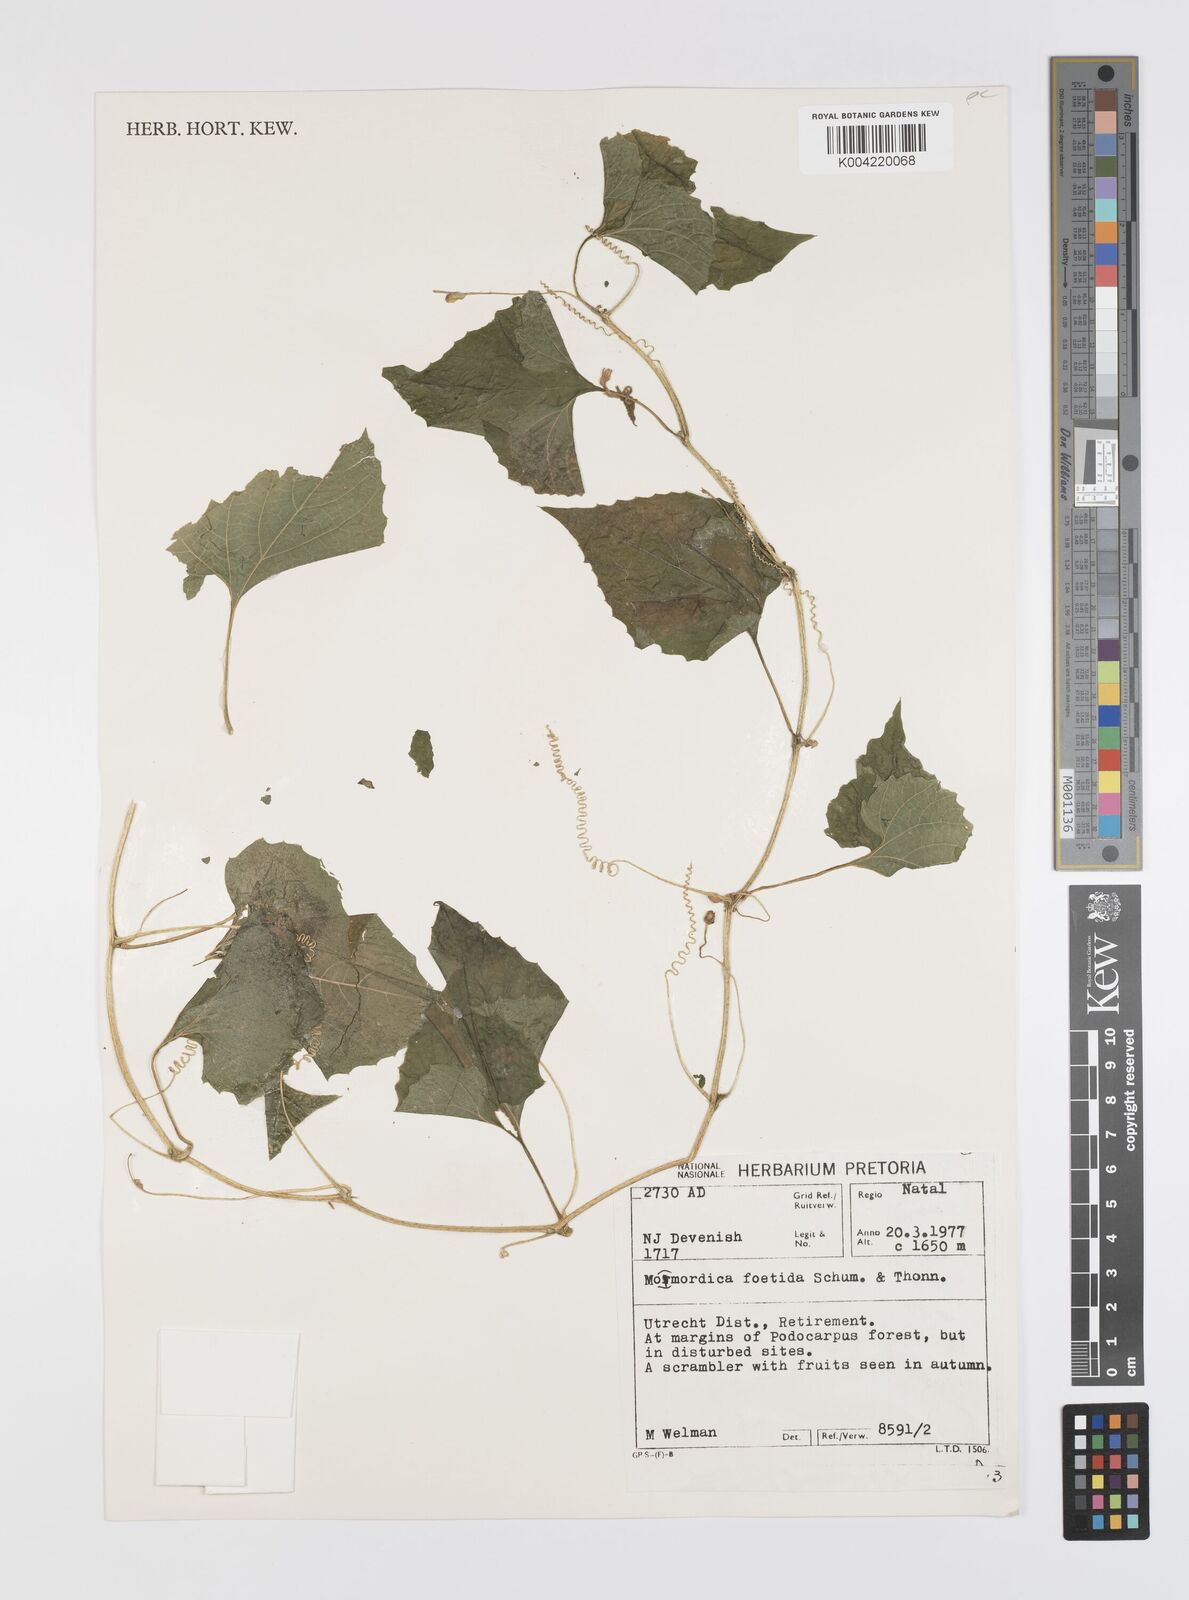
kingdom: Plantae
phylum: Tracheophyta
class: Magnoliopsida
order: Cucurbitales
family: Cucurbitaceae
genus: Momordica
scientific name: Momordica foetida
